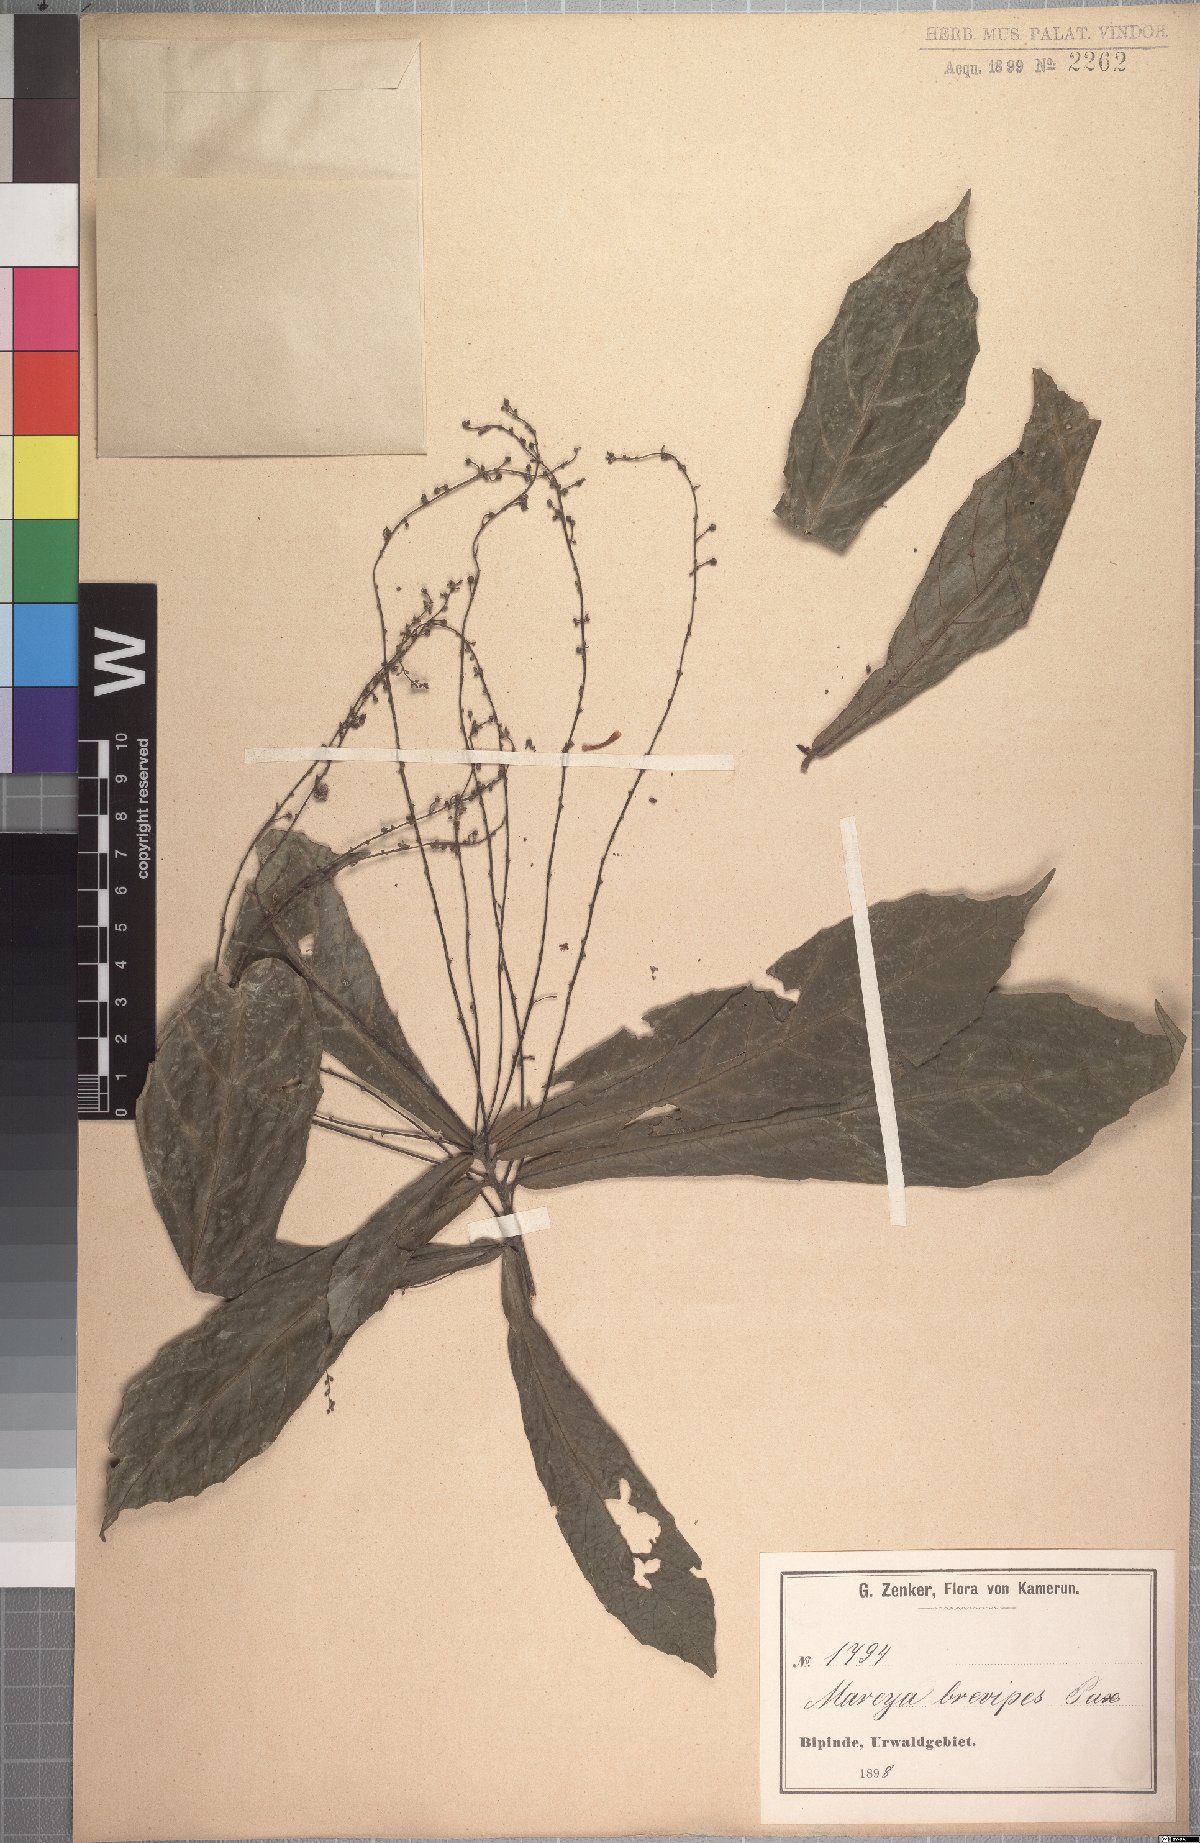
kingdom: Plantae
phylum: Tracheophyta
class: Magnoliopsida
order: Malpighiales
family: Euphorbiaceae
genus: Mareya
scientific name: Mareya brevipes
